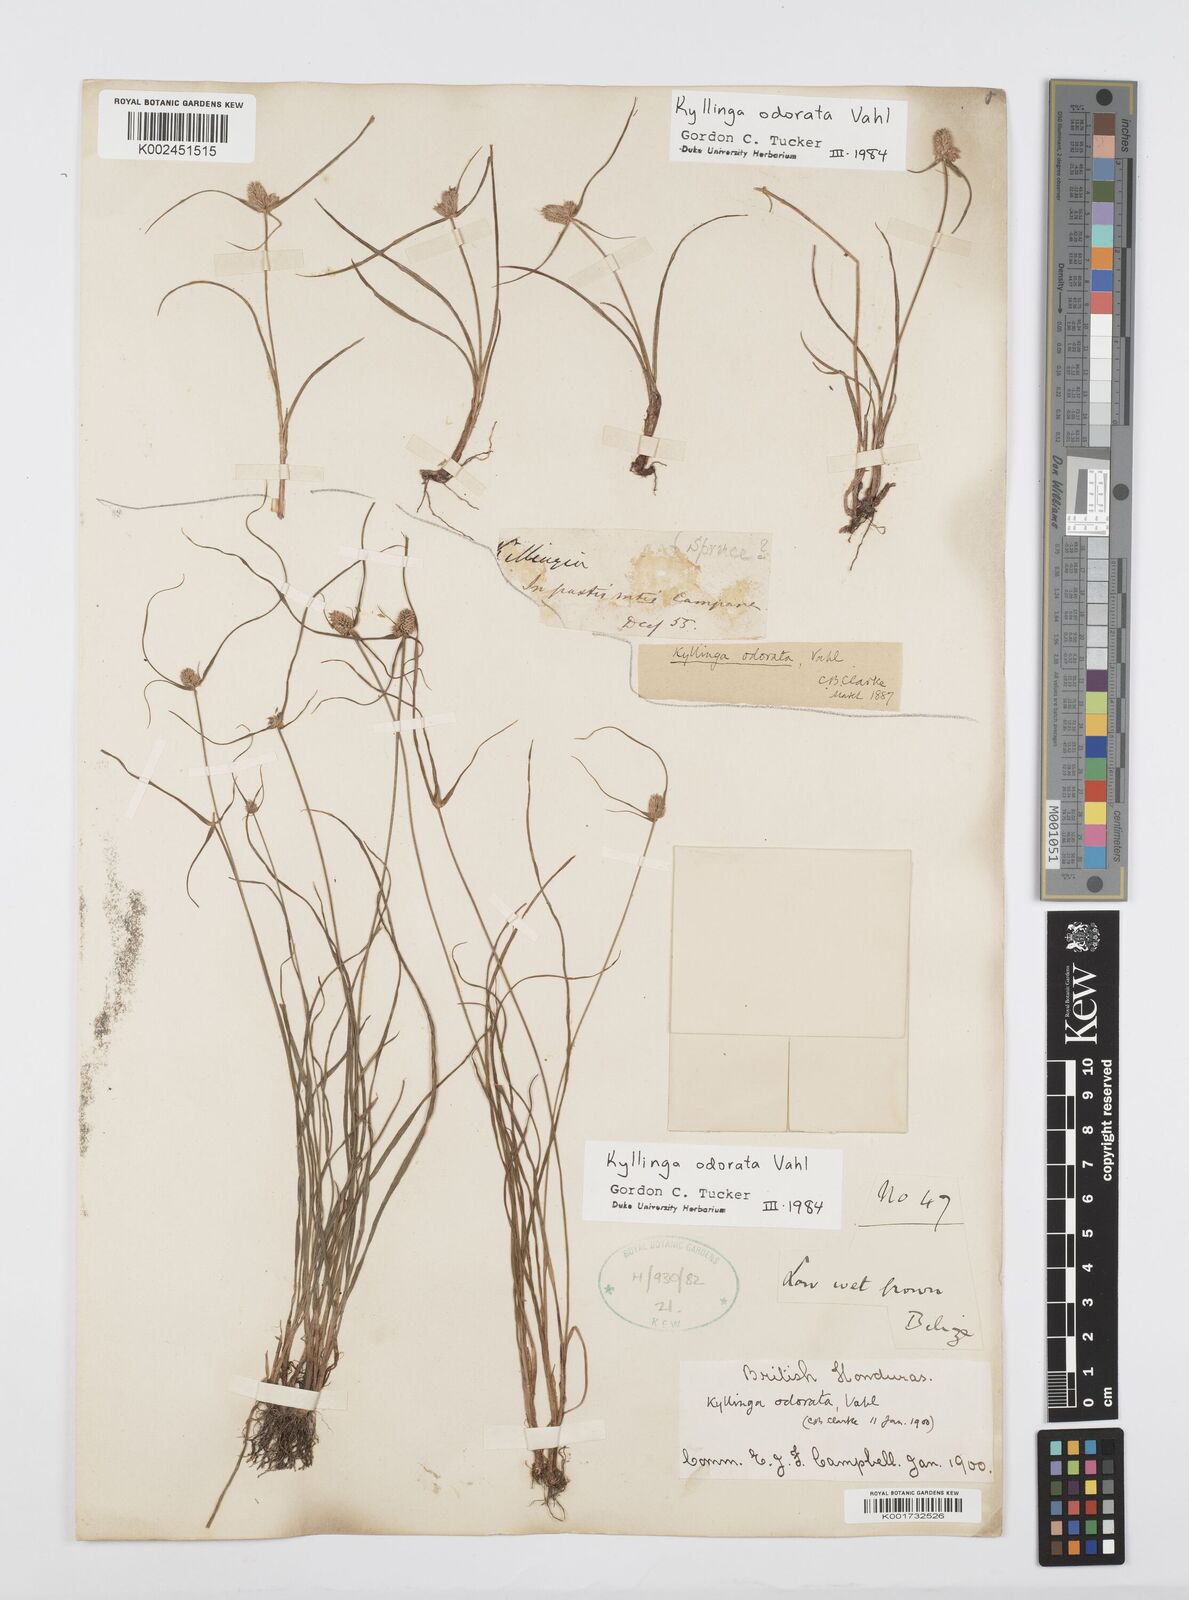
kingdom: Plantae
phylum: Tracheophyta
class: Liliopsida
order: Poales
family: Cyperaceae
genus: Cyperus
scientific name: Cyperus sesquiflorus
